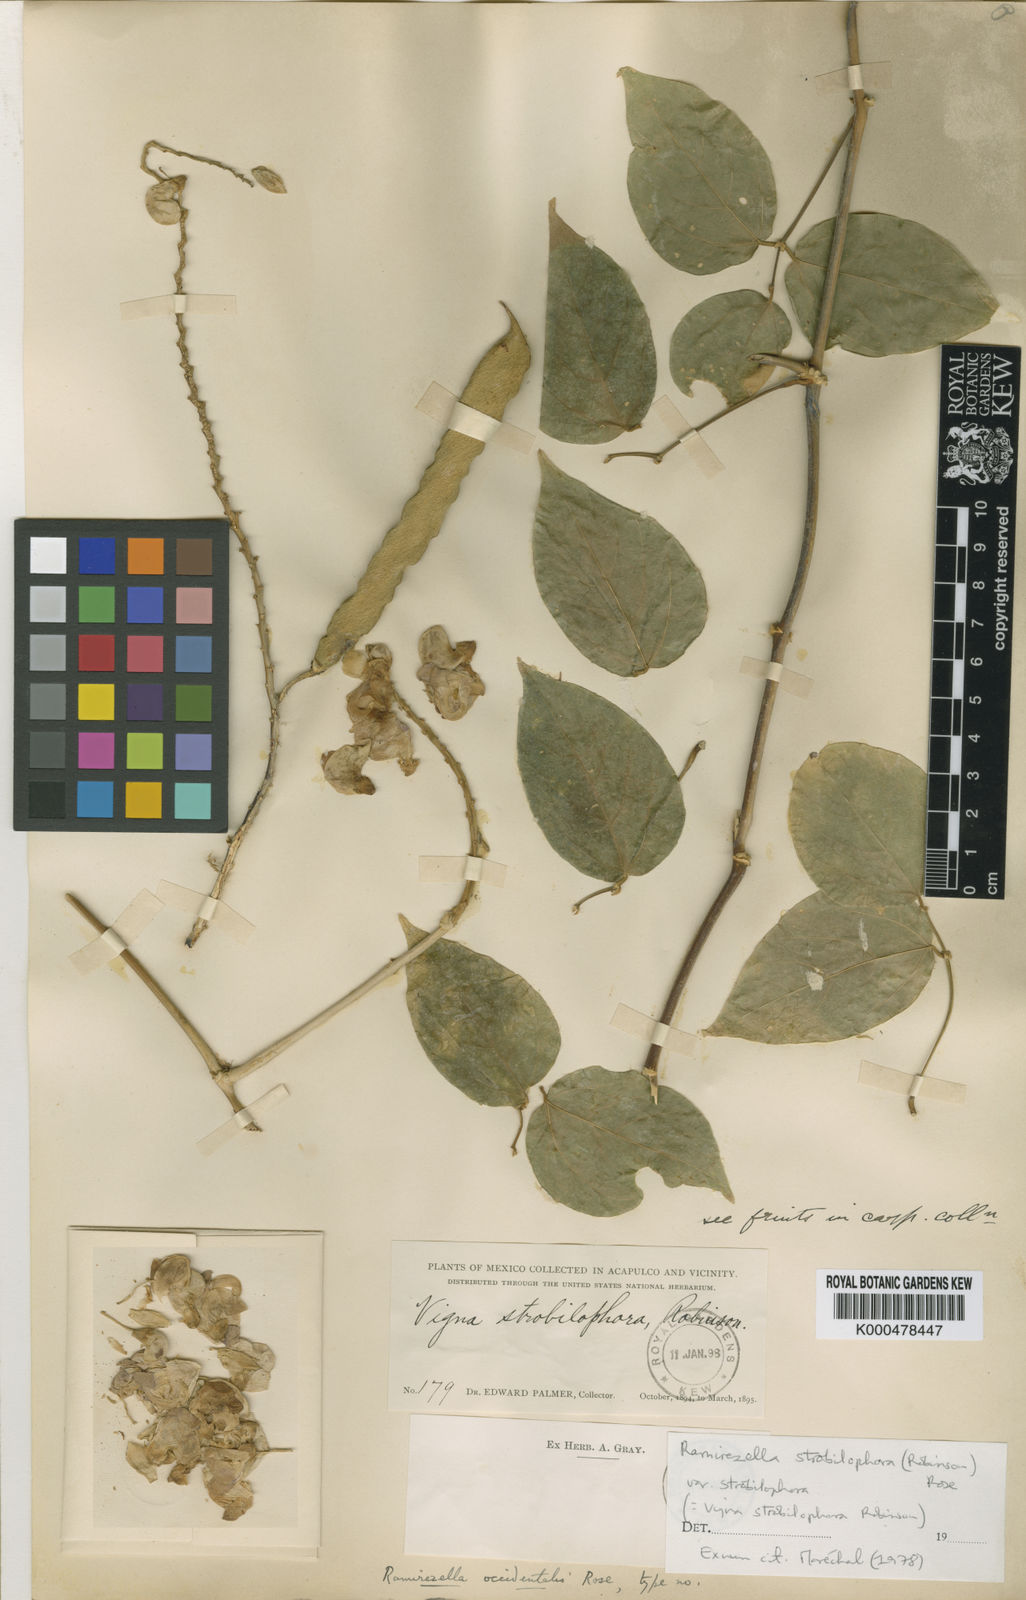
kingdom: Plantae
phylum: Tracheophyta
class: Magnoliopsida
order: Fabales
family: Fabaceae
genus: Ramirezella
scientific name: Ramirezella strobilophora
